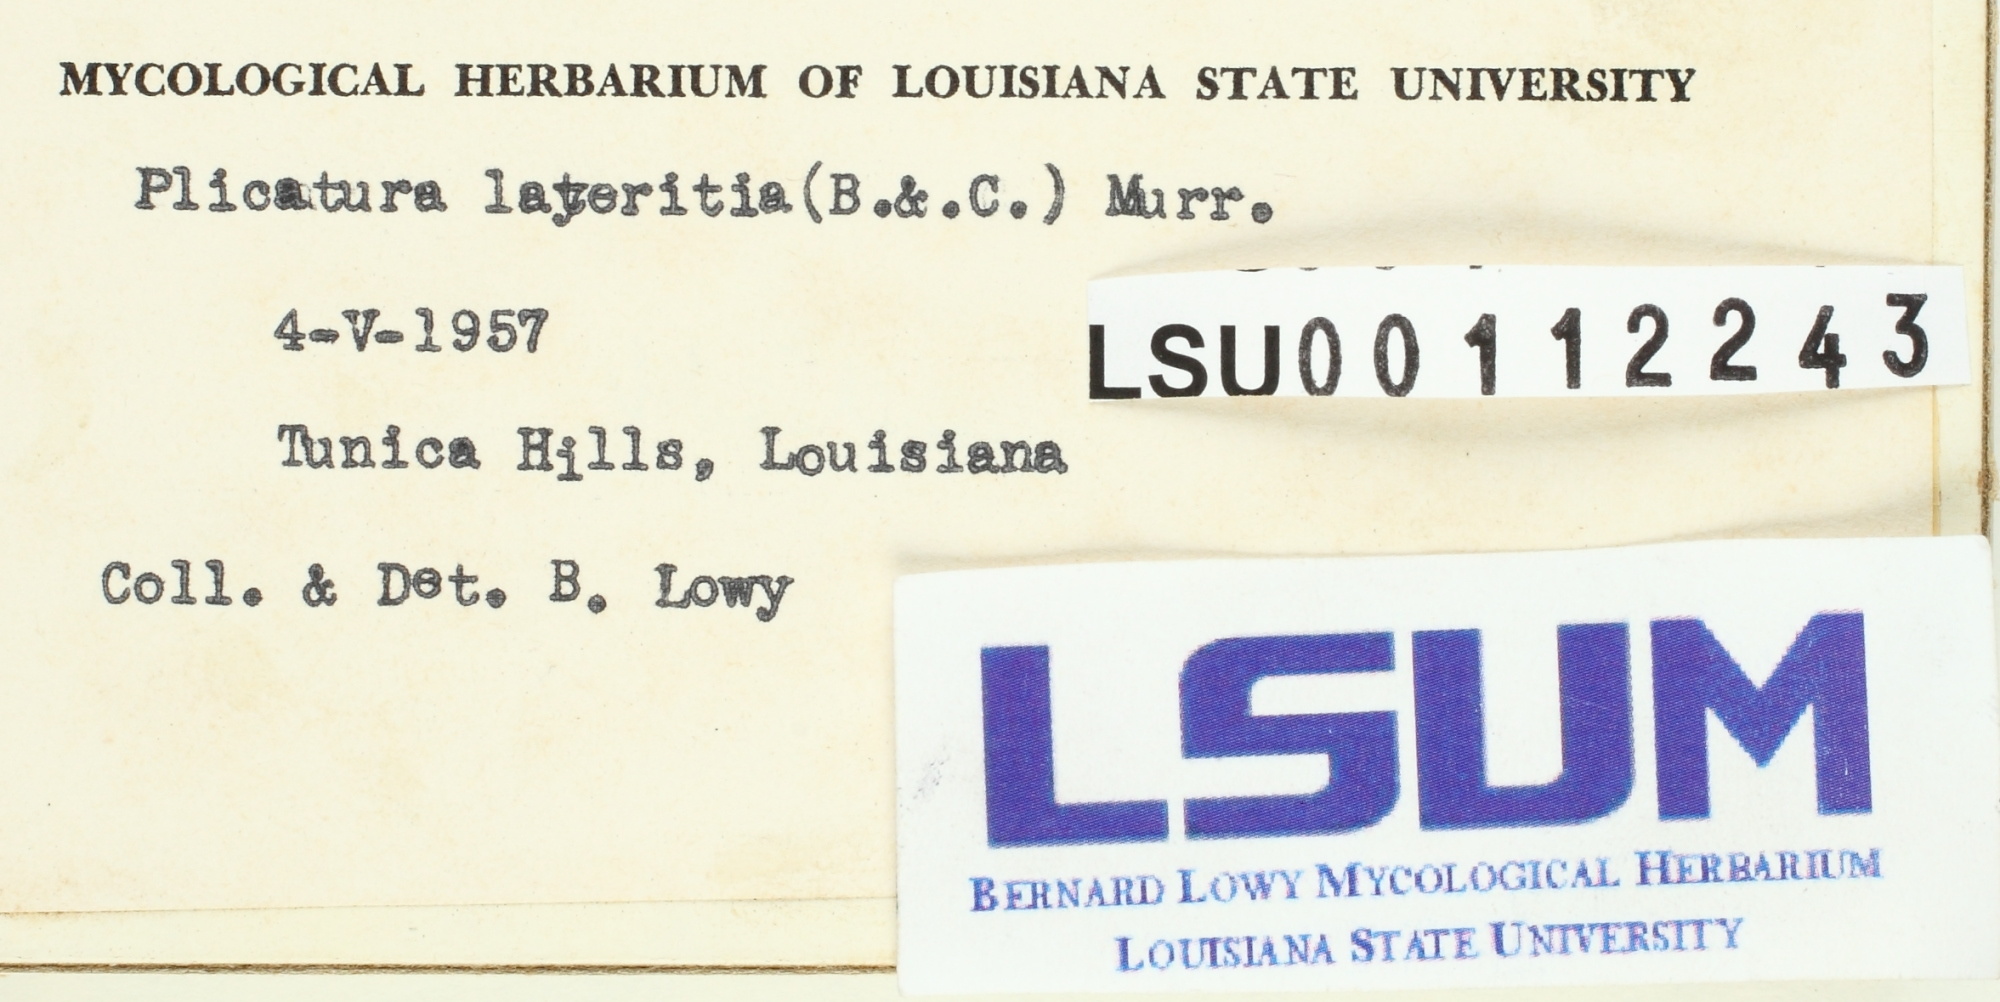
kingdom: Fungi
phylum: Basidiomycota
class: Agaricomycetes
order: Agaricales
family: Omphalotaceae
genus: Anthracophyllum
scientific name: Anthracophyllum lateritium
